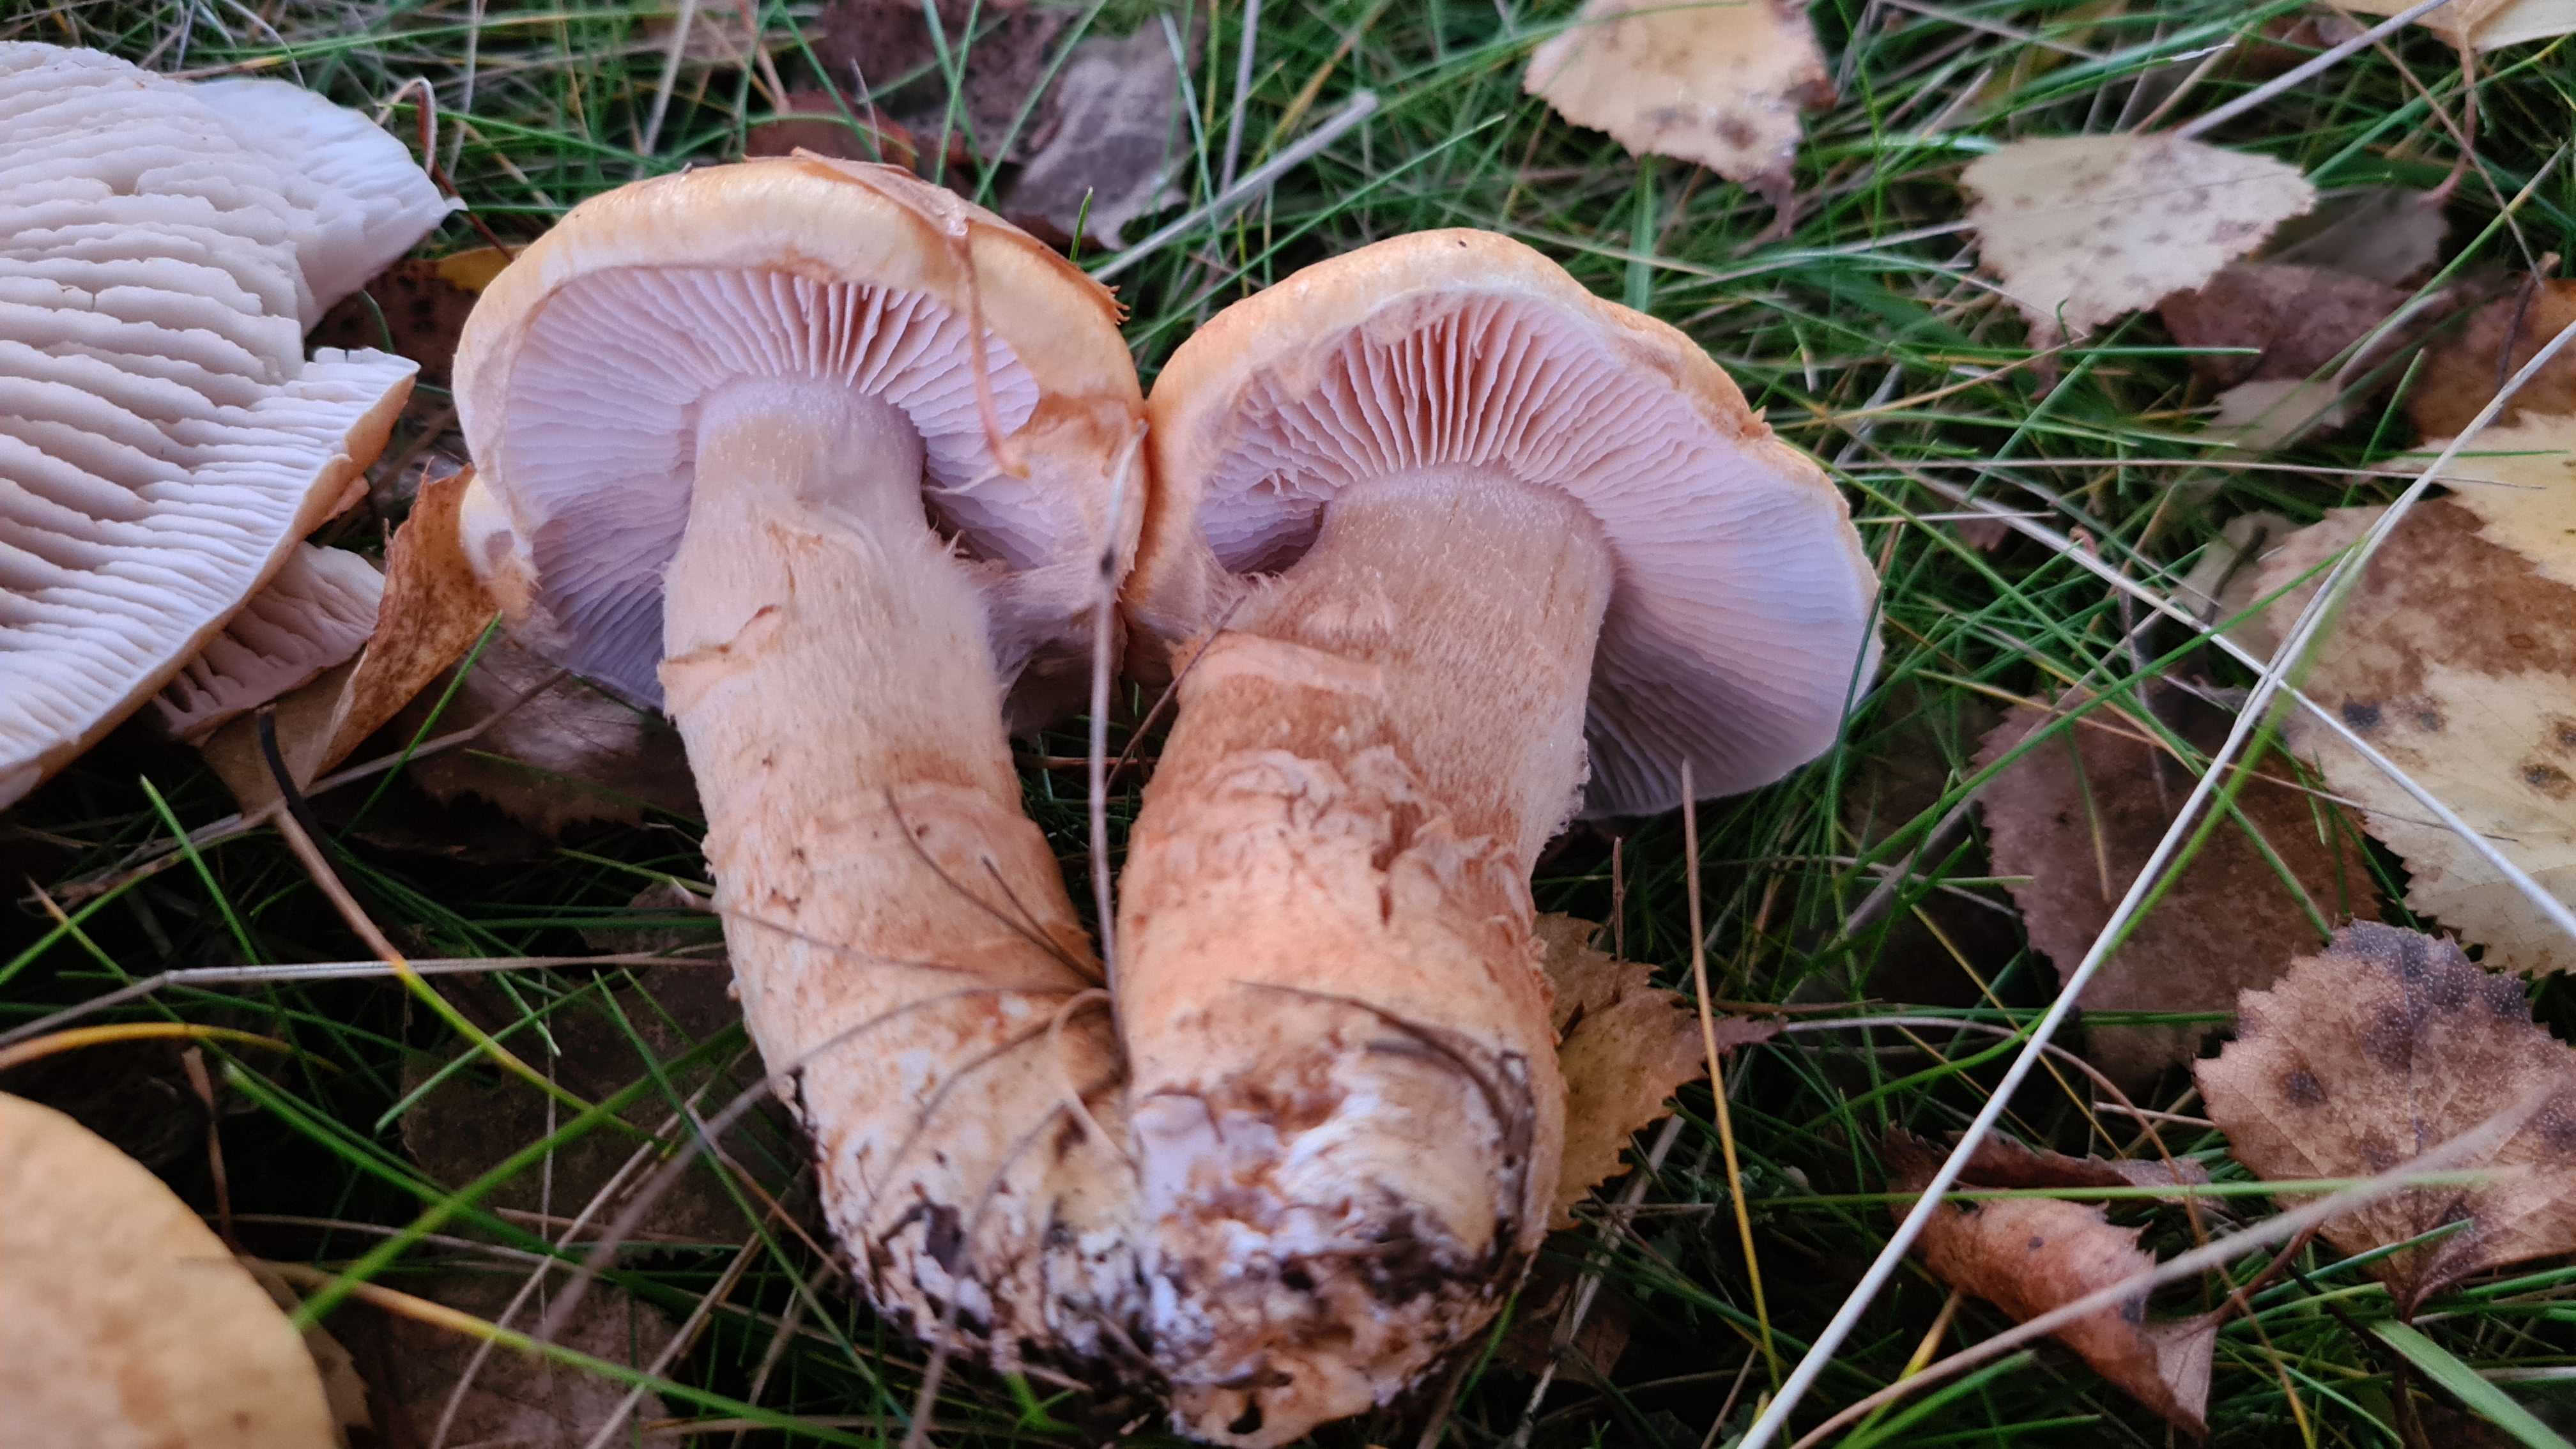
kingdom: Fungi
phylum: Basidiomycota
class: Agaricomycetes
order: Agaricales
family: Cortinariaceae
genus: Phlegmacium
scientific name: Phlegmacium triumphans
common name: gulbæltet slørhat
